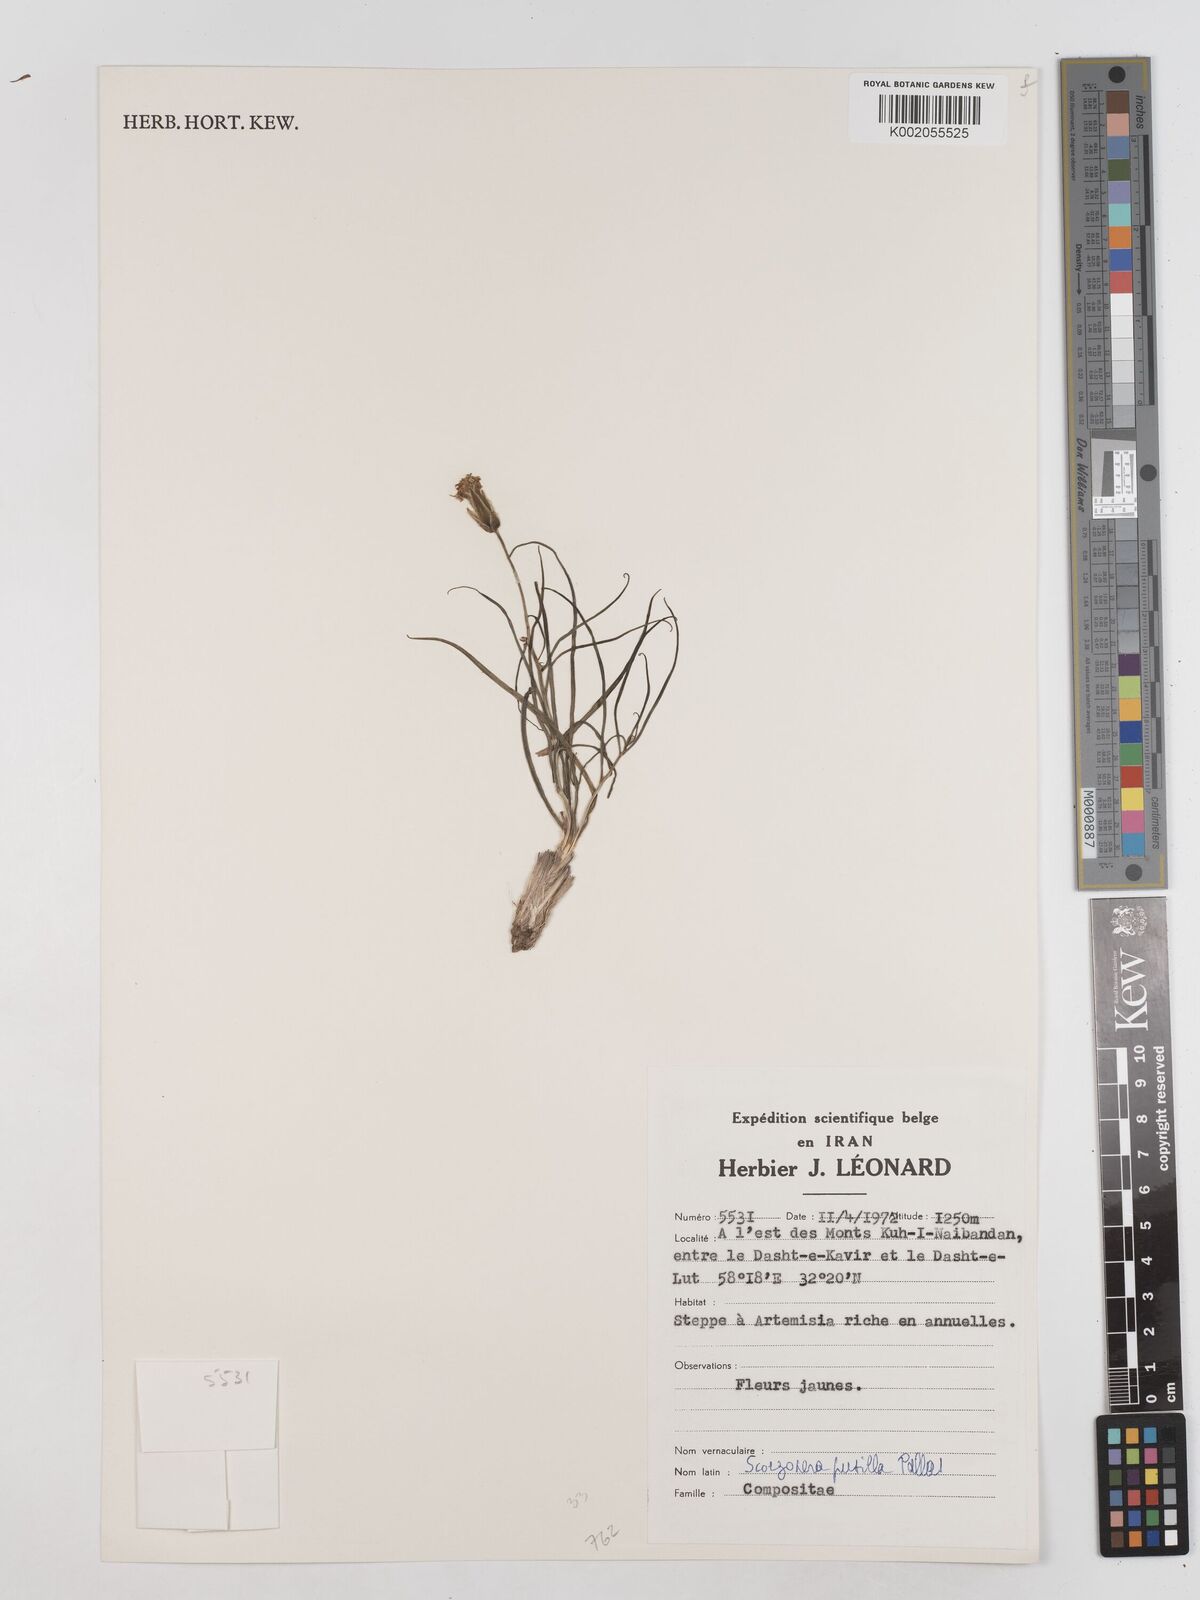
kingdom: Plantae
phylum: Tracheophyta
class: Magnoliopsida
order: Asterales
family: Asteraceae
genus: Takhtajaniantha
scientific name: Takhtajaniantha pusilla
